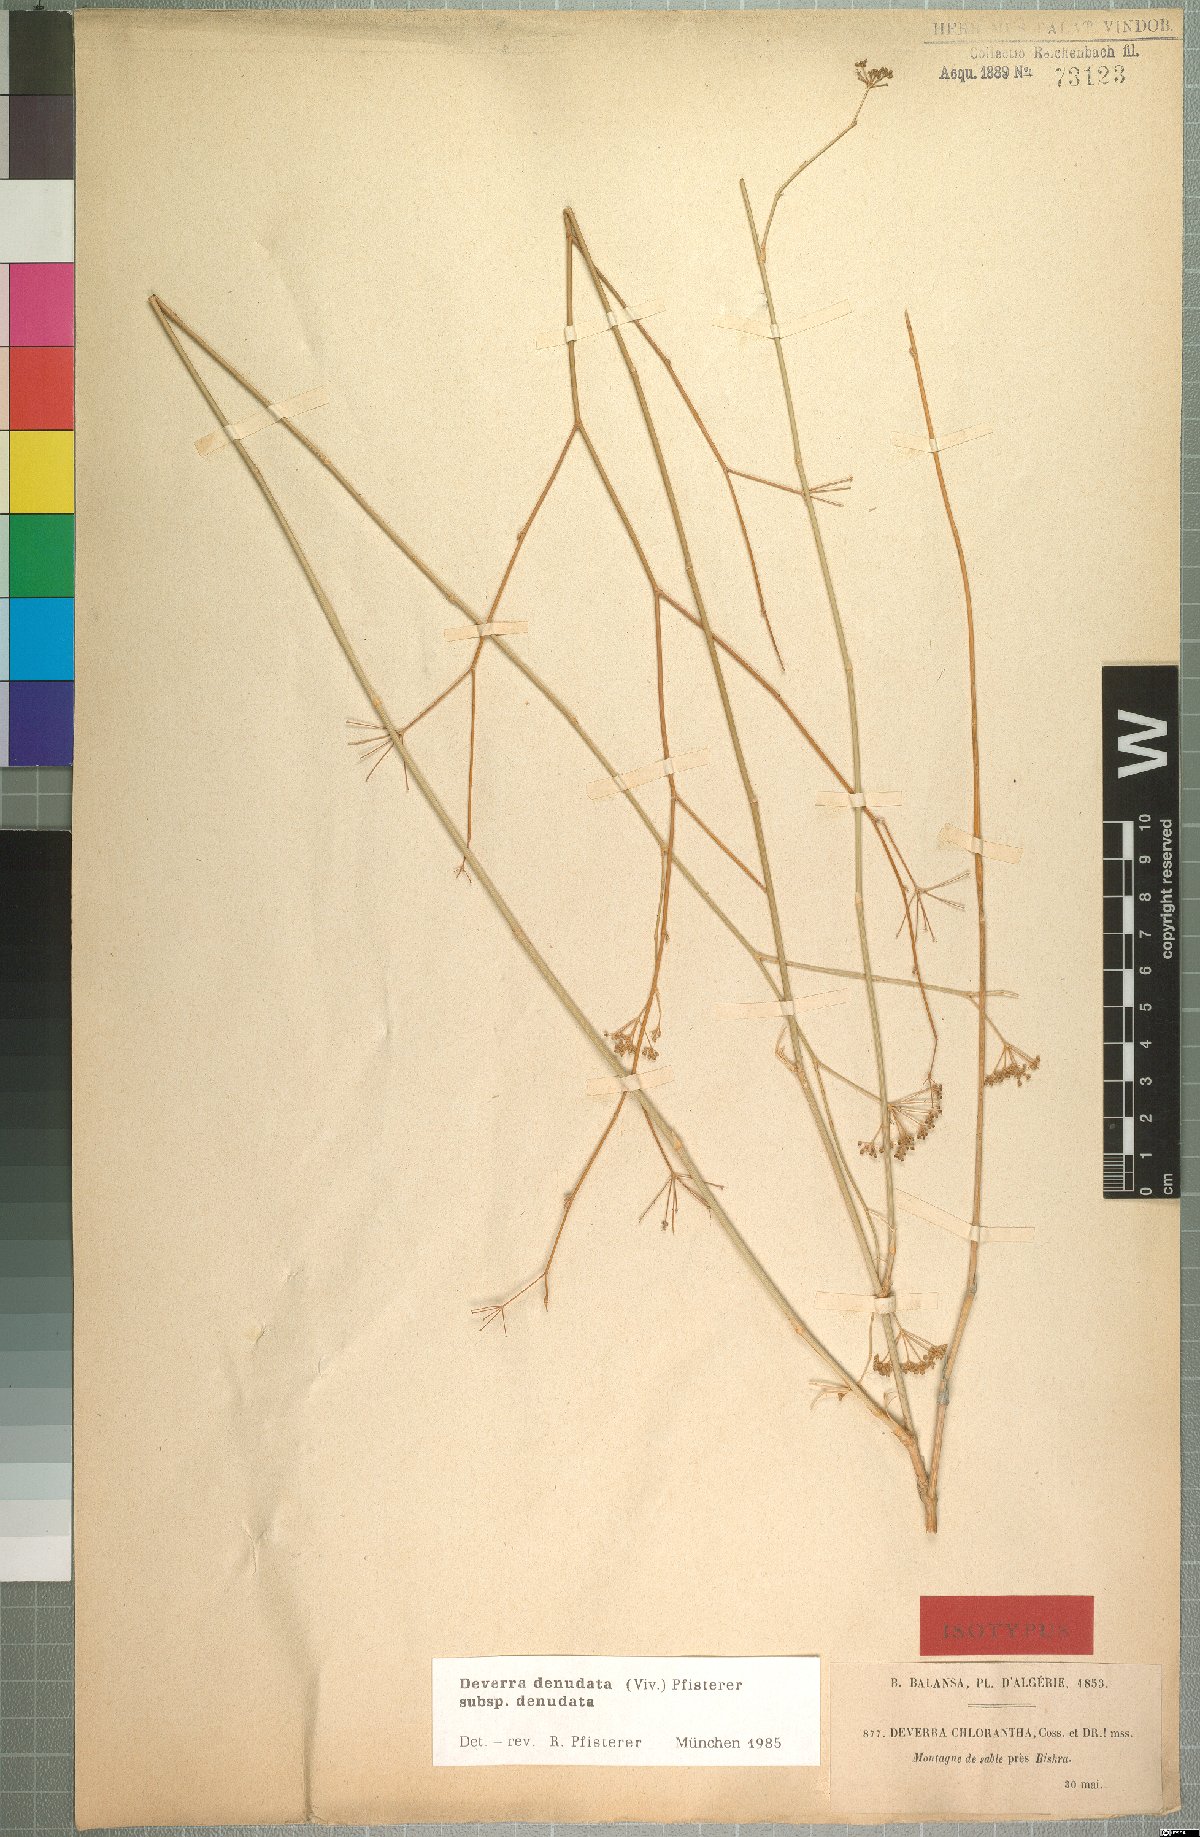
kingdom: Plantae
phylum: Tracheophyta
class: Magnoliopsida
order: Apiales
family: Apiaceae
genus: Deverra
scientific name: Deverra denudata
